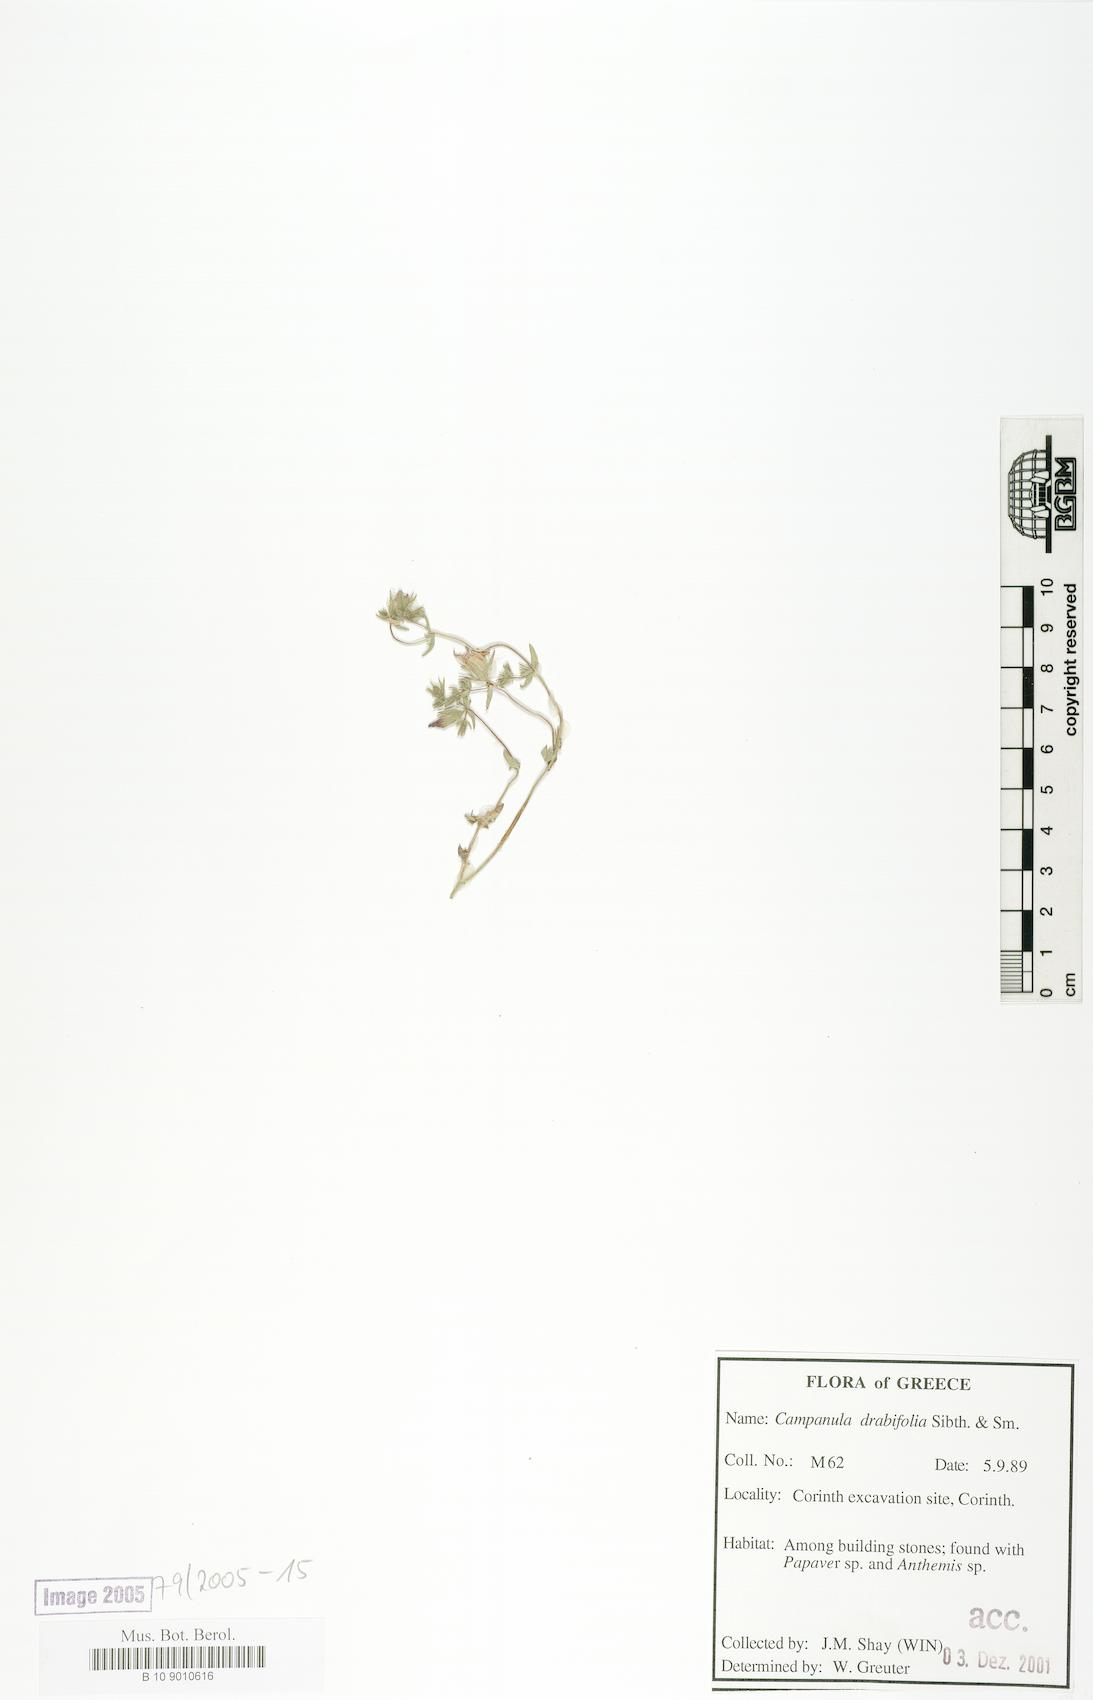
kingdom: Plantae
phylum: Tracheophyta
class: Magnoliopsida
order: Asterales
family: Campanulaceae
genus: Campanula
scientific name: Campanula drabifolia
